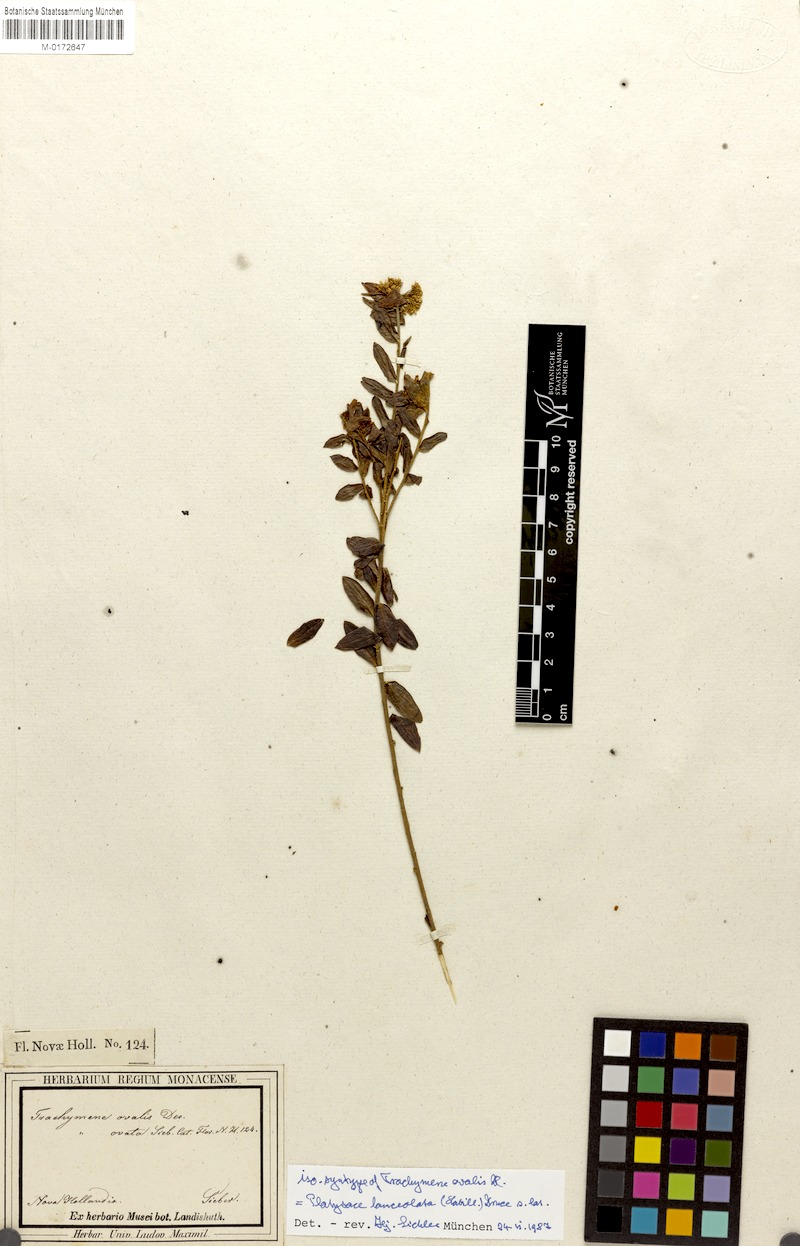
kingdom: Plantae
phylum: Tracheophyta
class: Magnoliopsida
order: Apiales
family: Apiaceae
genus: Platysace
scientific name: Platysace lanceolata
